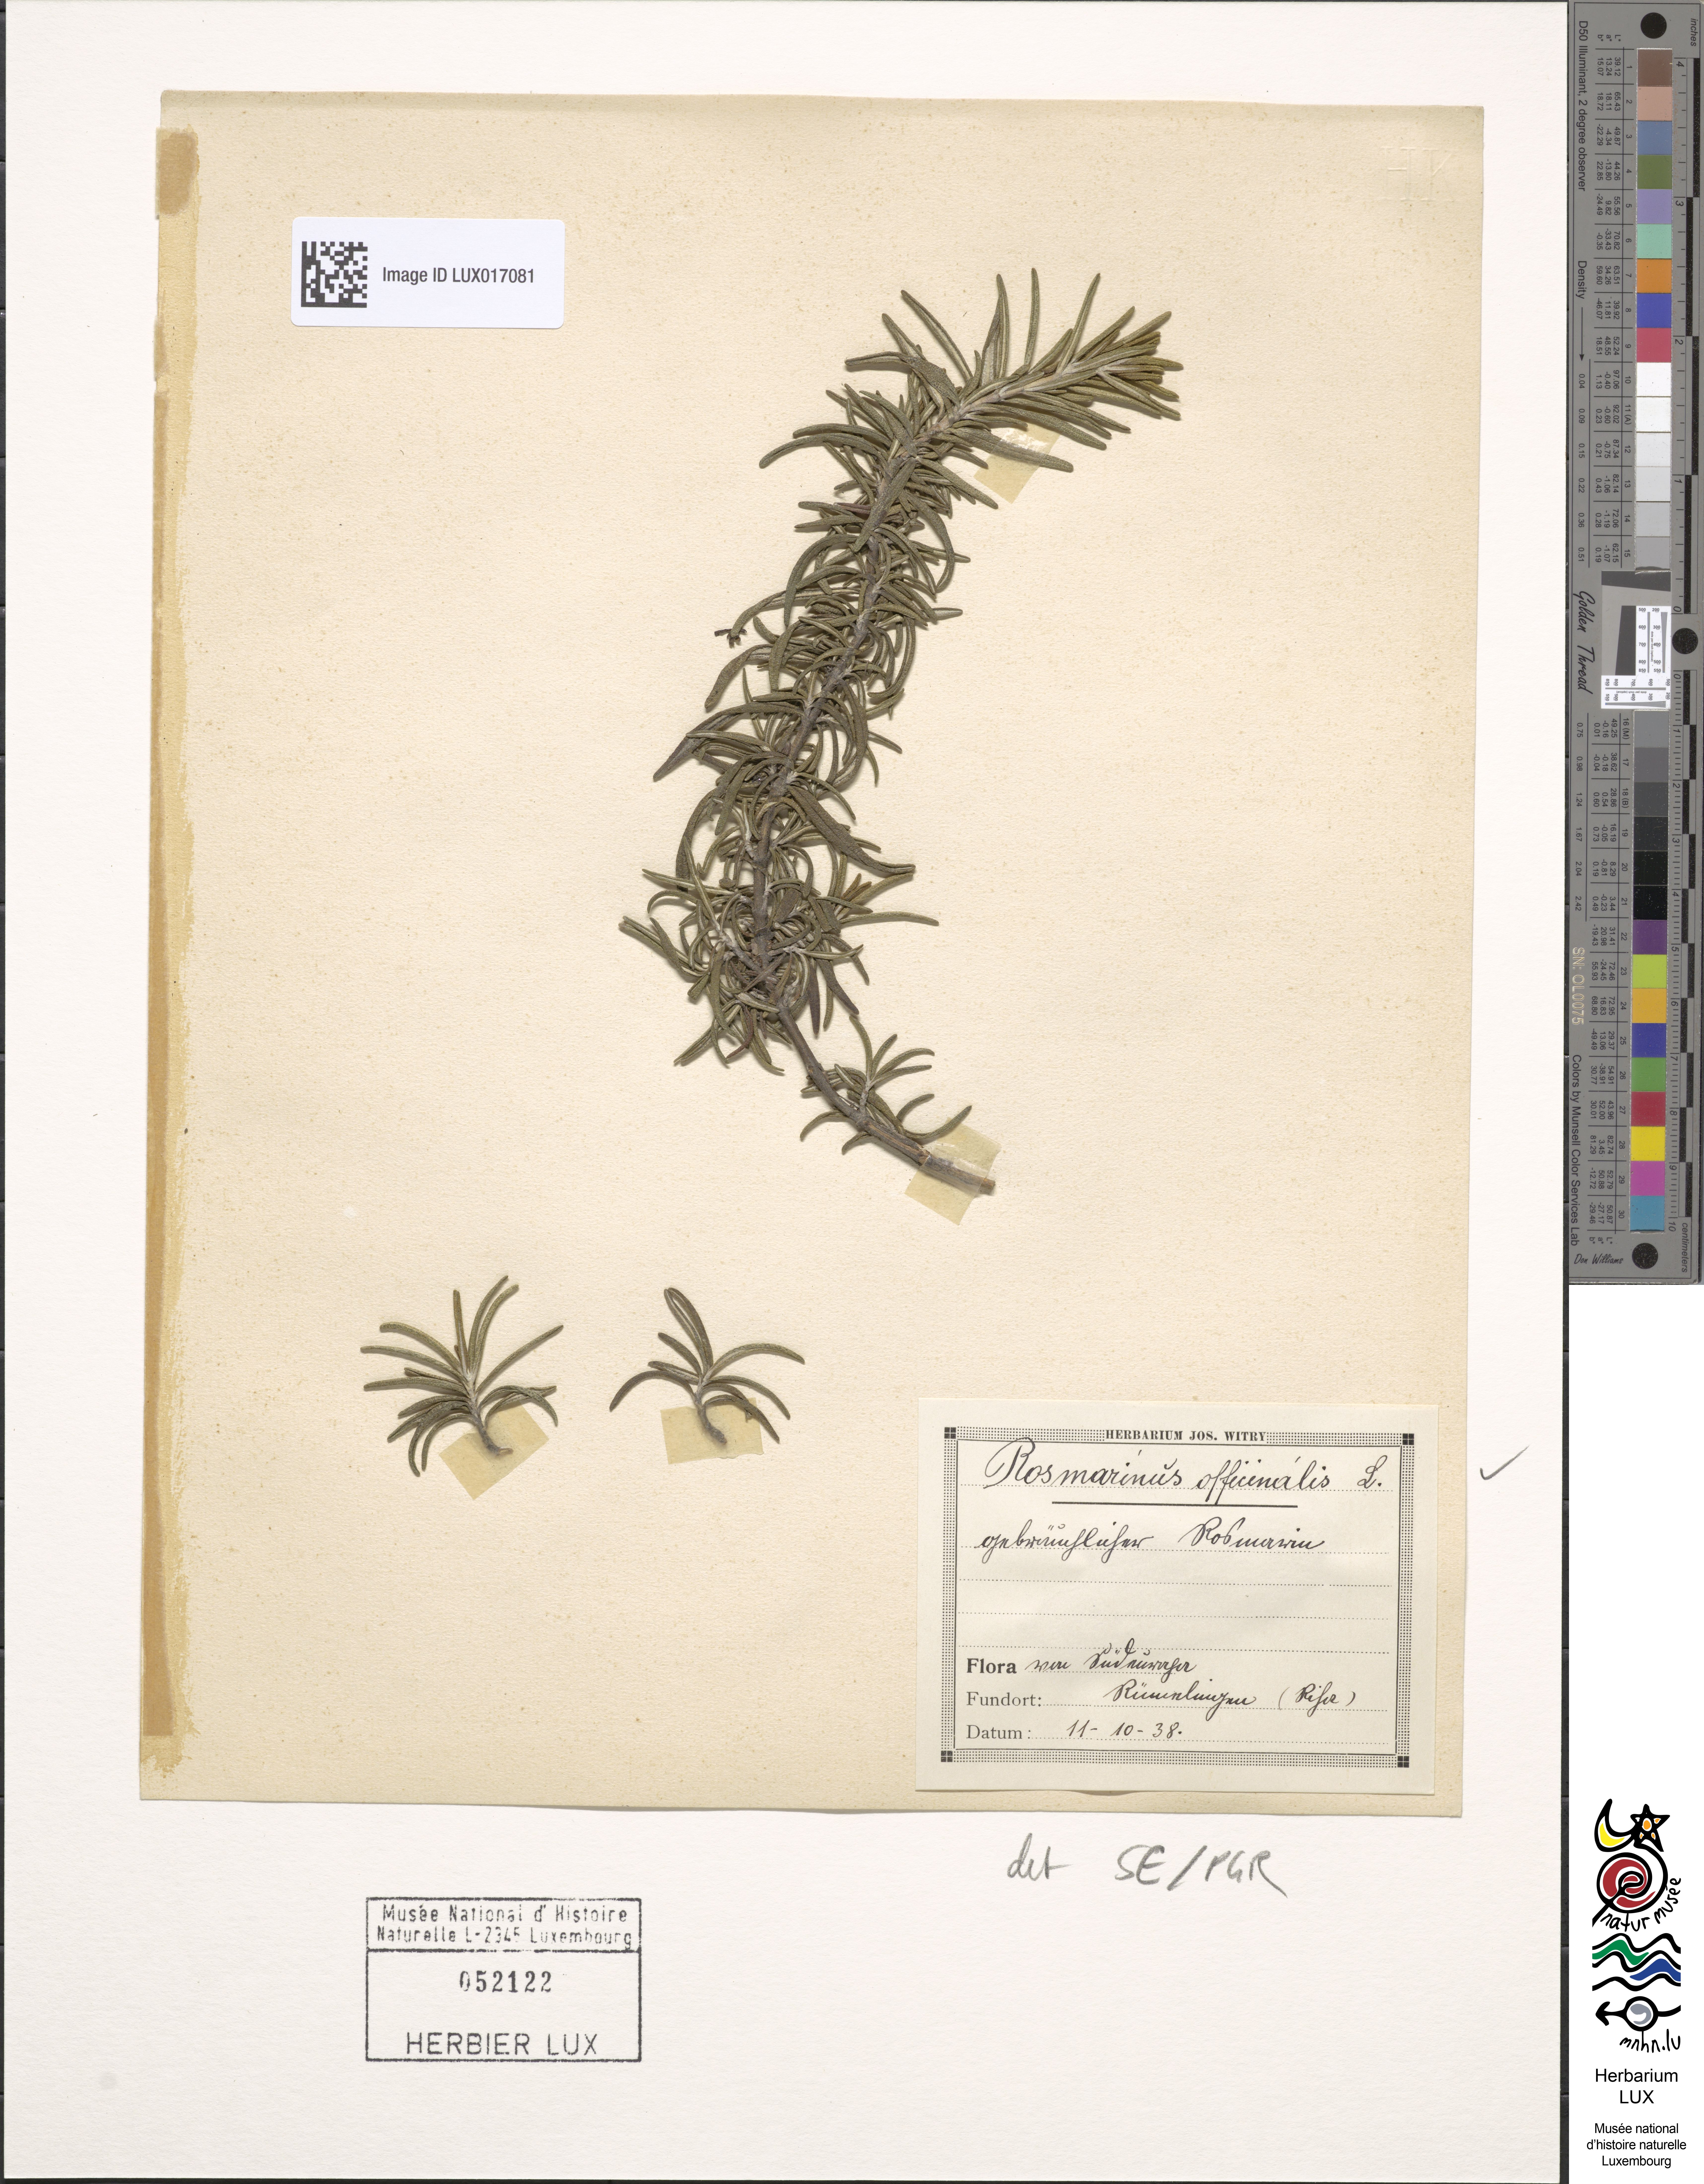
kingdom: Plantae
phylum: Tracheophyta
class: Magnoliopsida
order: Lamiales
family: Lamiaceae
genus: Salvia
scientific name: Salvia rosmarinus
